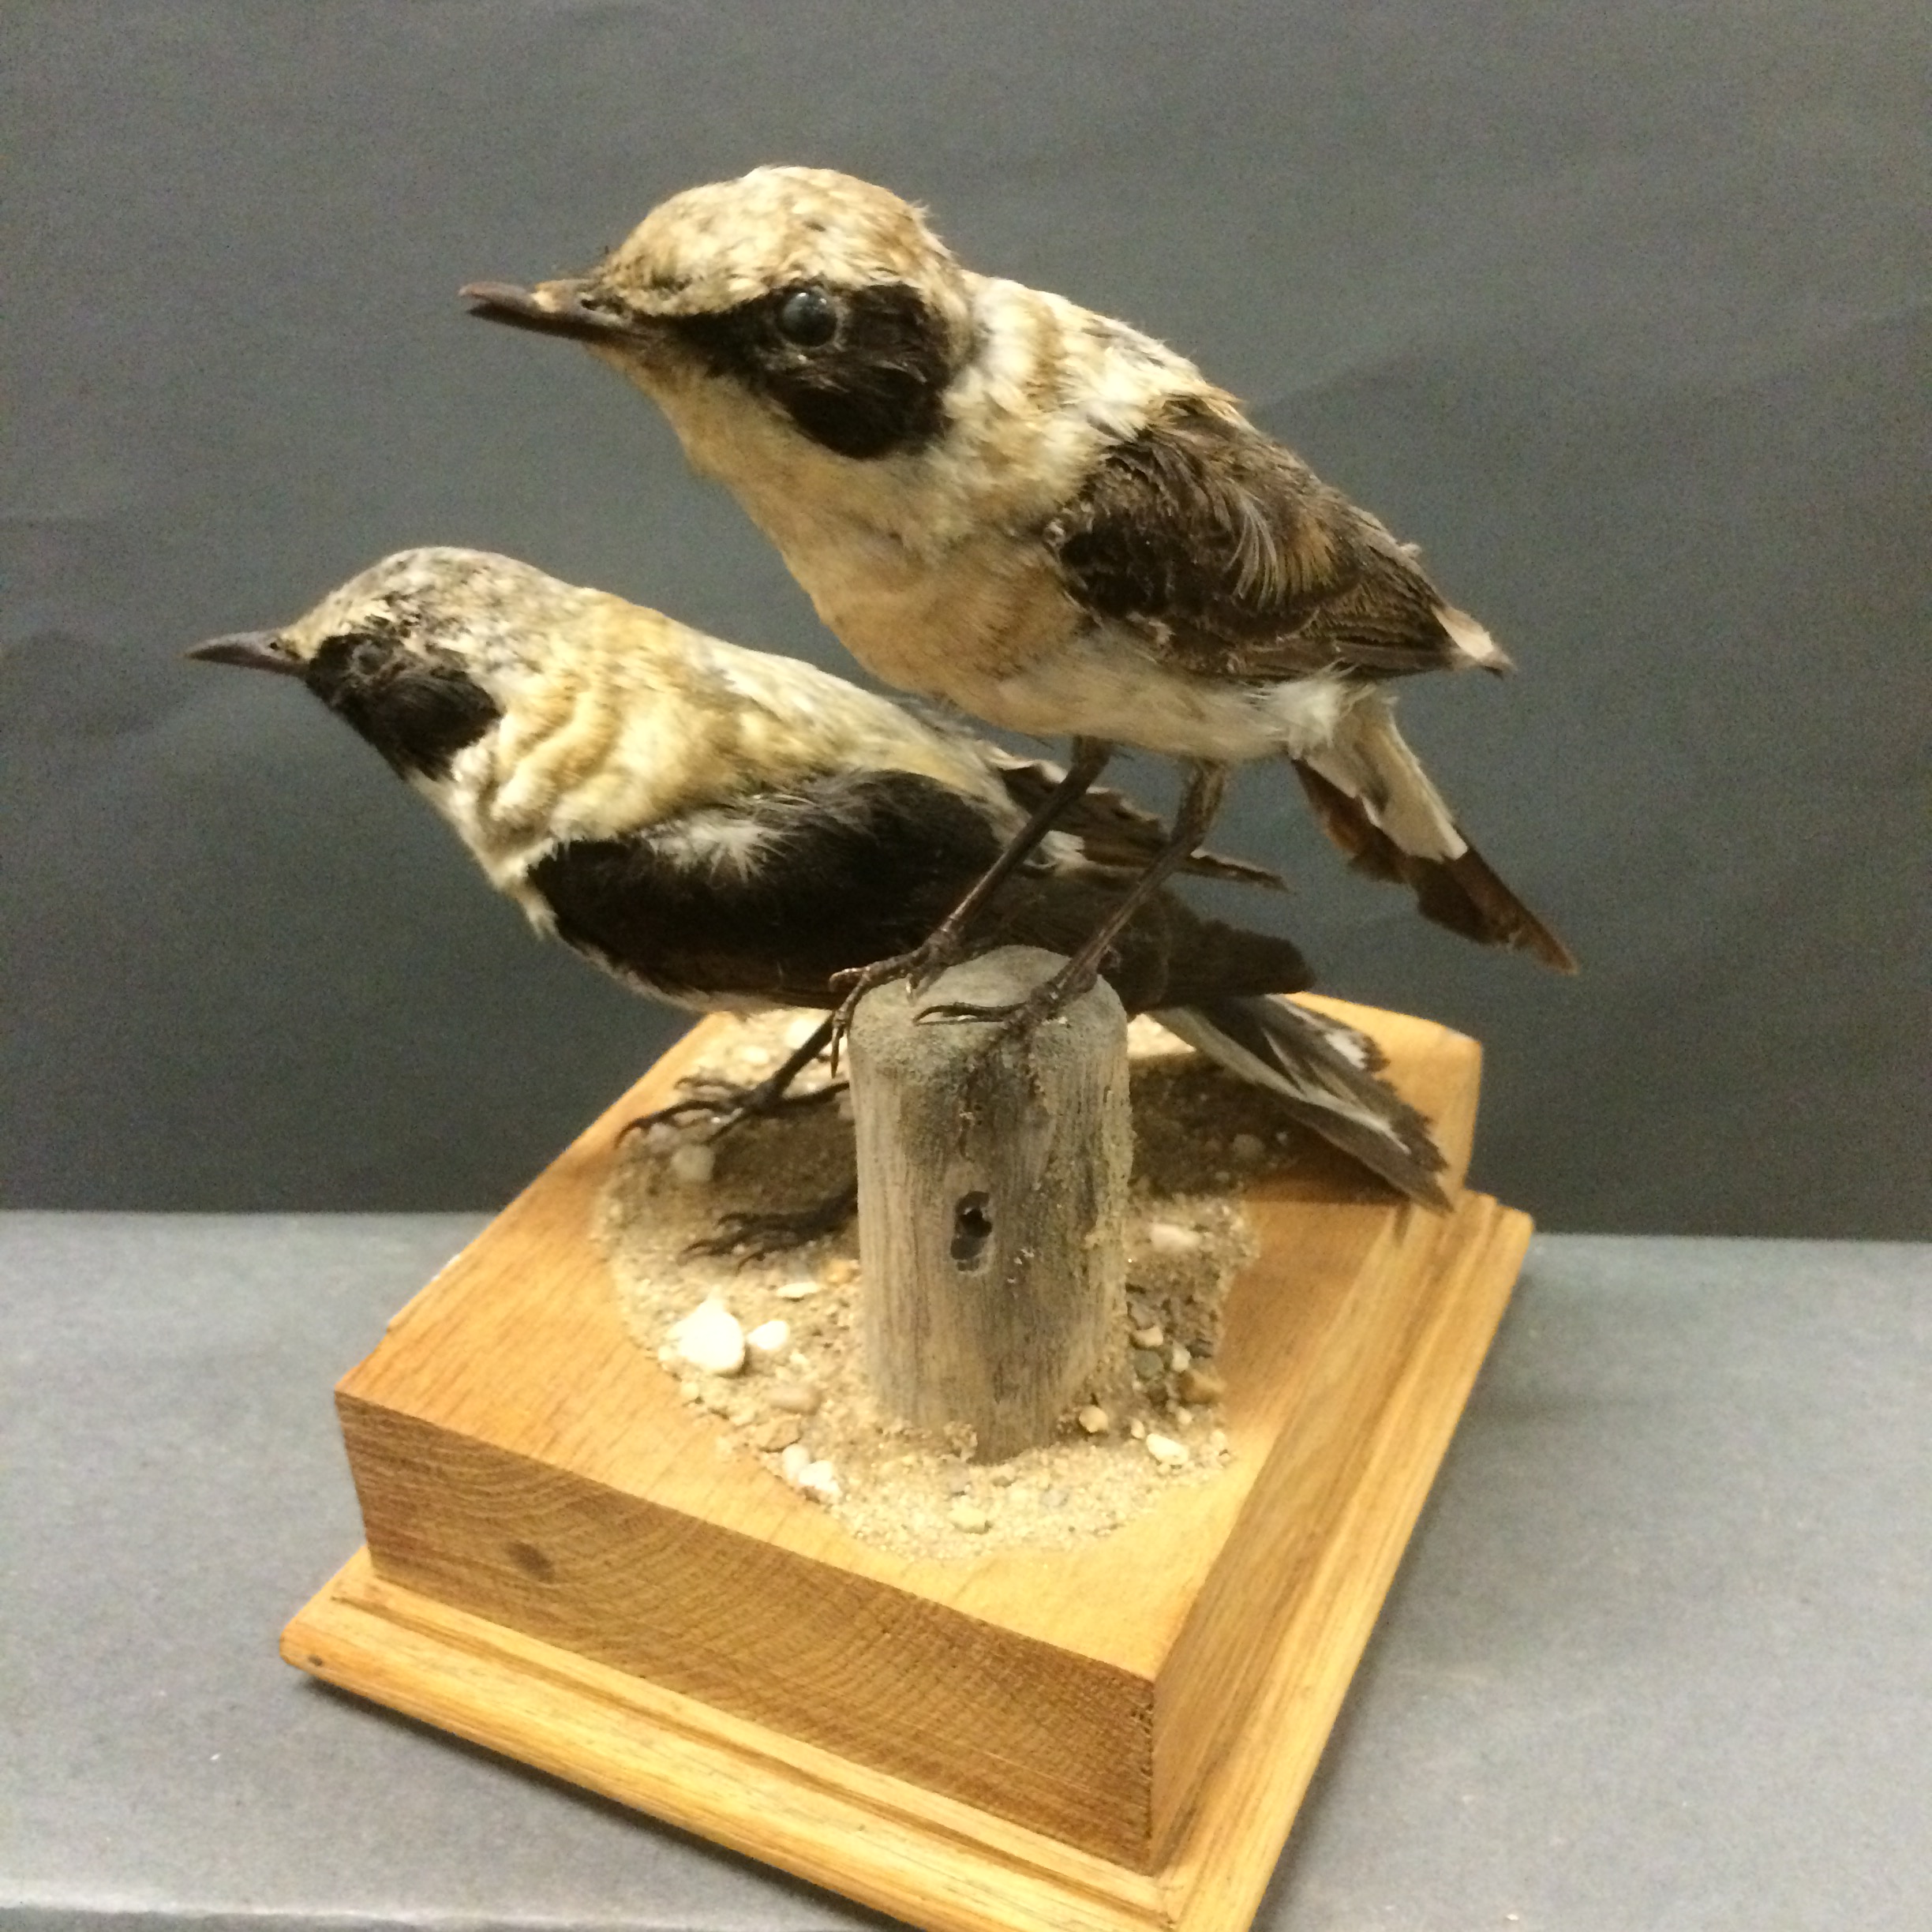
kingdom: Animalia
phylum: Chordata
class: Aves
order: Passeriformes
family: Muscicapidae
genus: Oenanthe
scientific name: Oenanthe hispanica
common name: Black-eared wheatear
